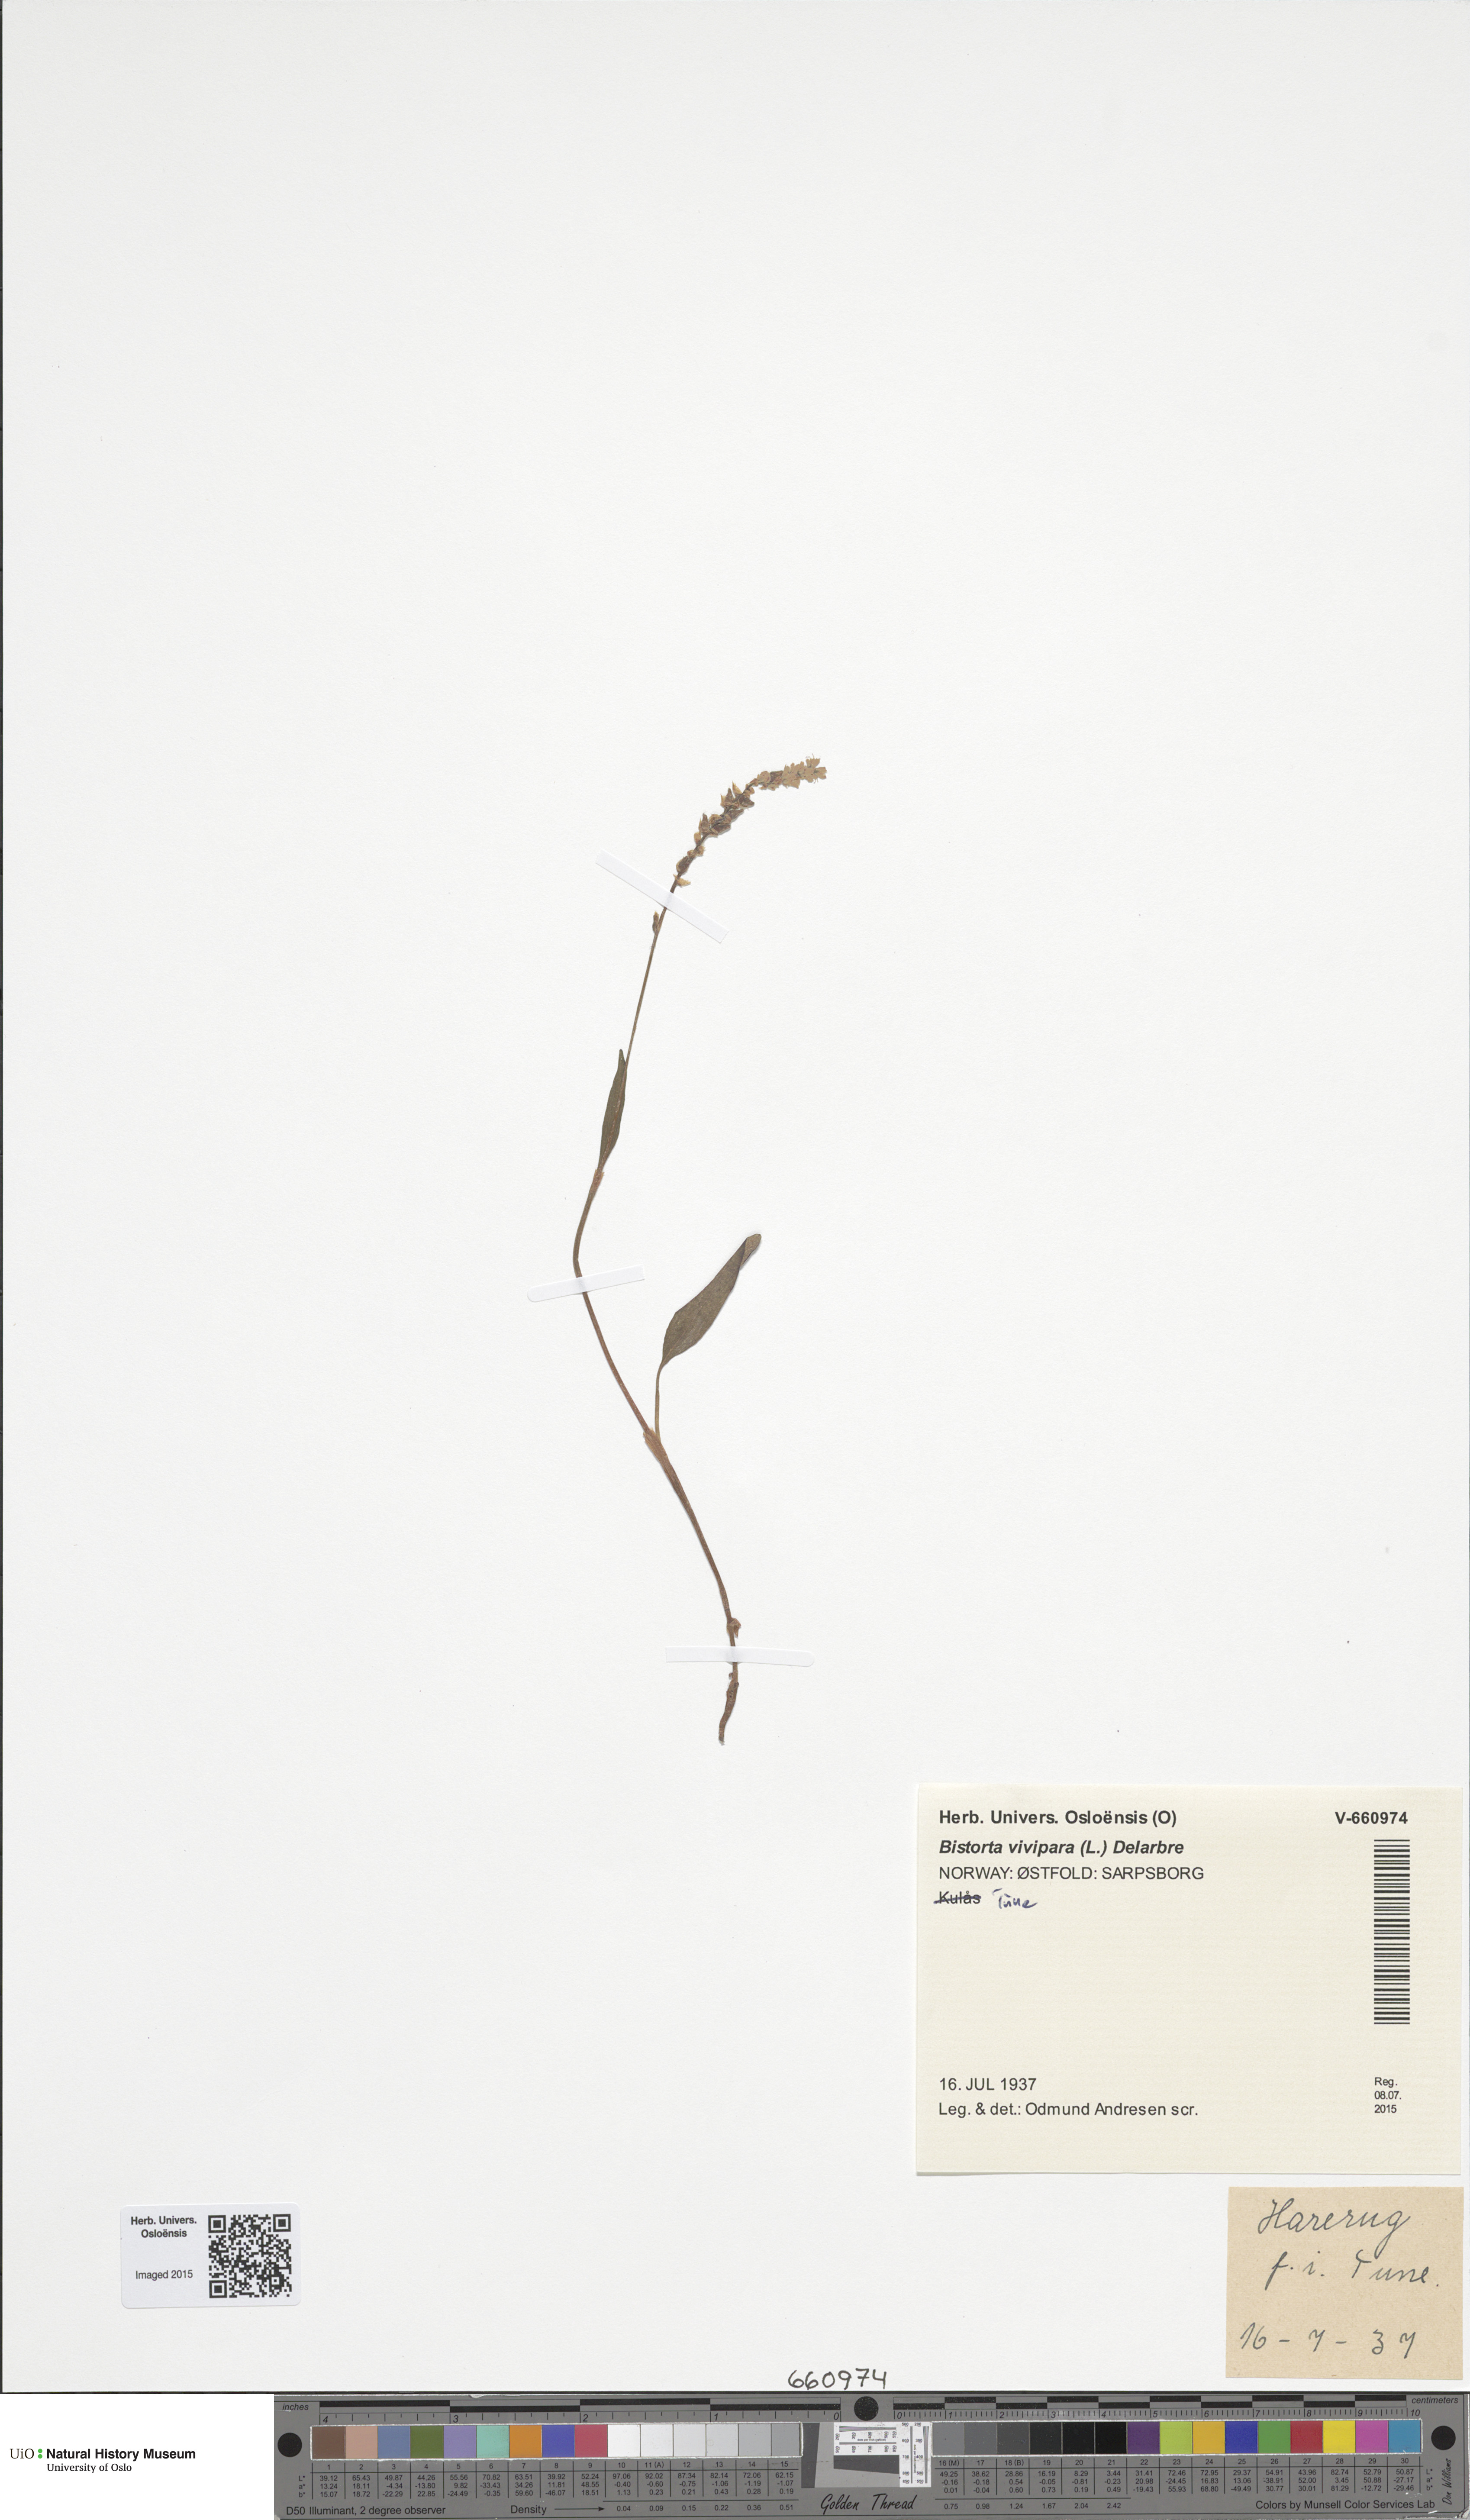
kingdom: Plantae
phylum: Tracheophyta
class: Magnoliopsida
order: Caryophyllales
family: Polygonaceae
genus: Bistorta
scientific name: Bistorta vivipara
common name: Alpine bistort
